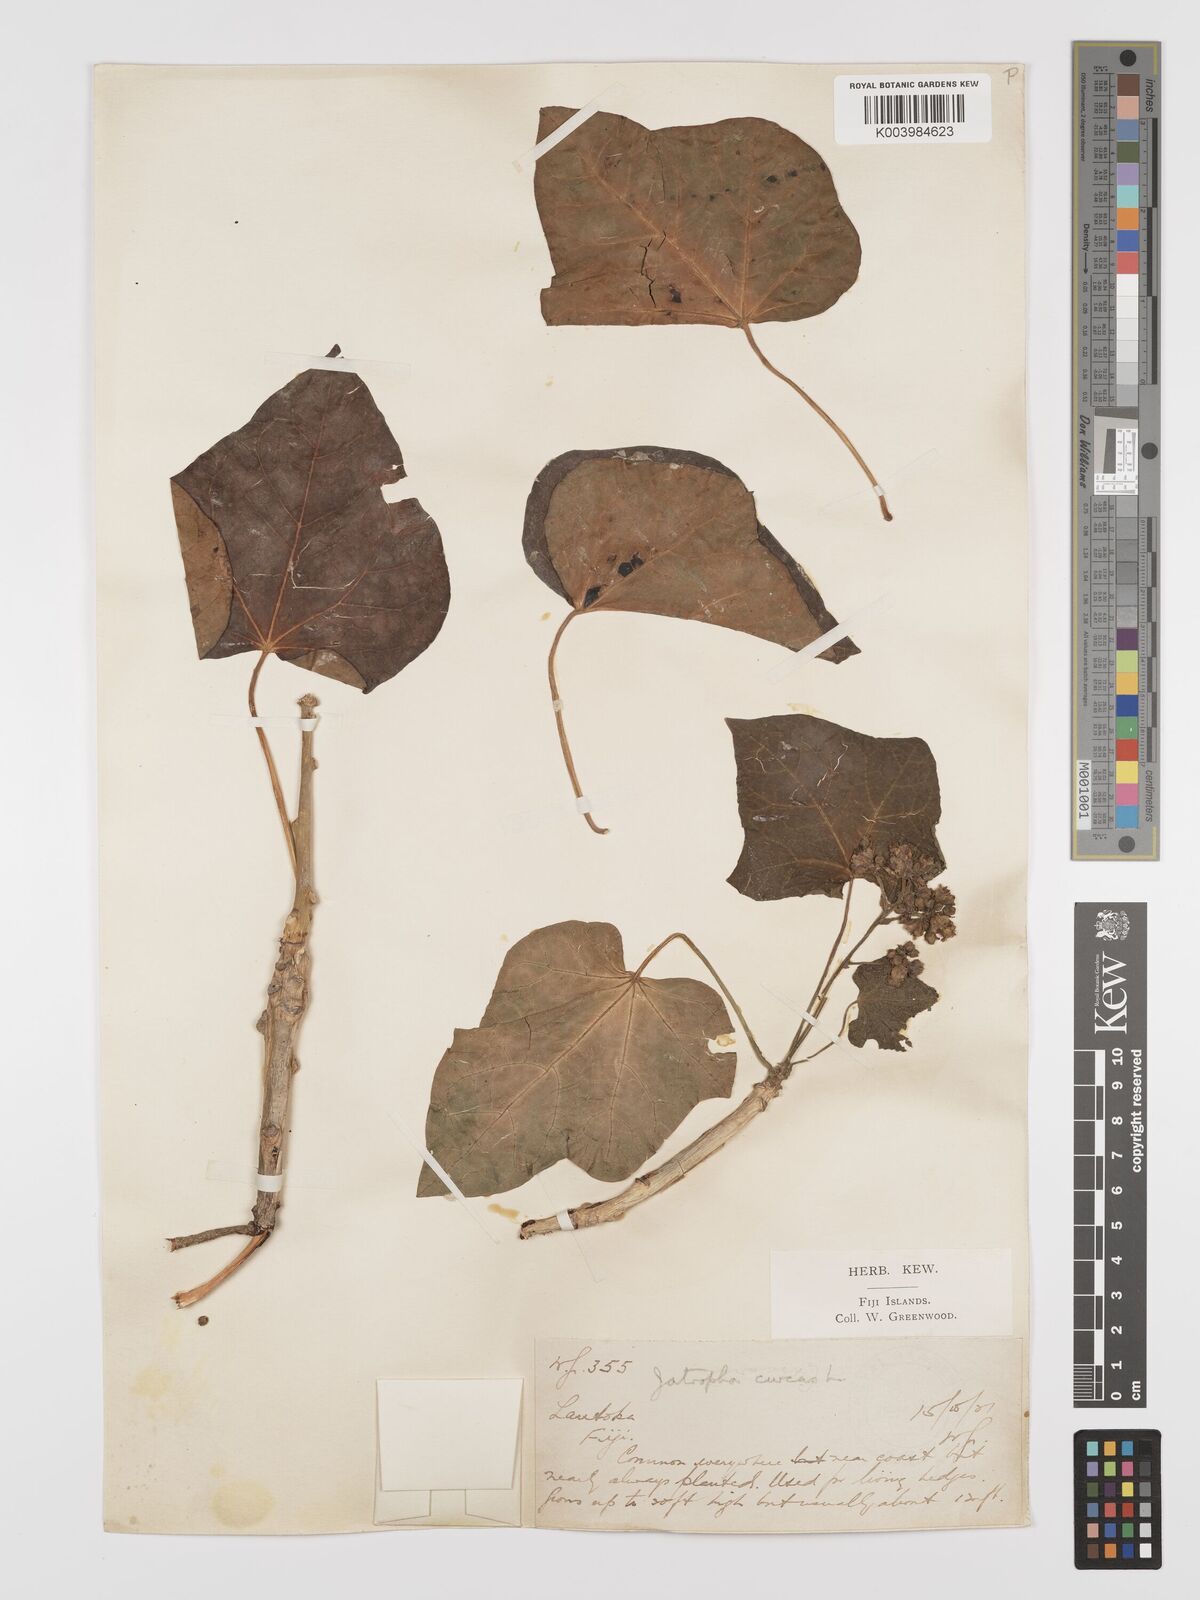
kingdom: Plantae
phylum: Tracheophyta
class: Magnoliopsida
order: Malpighiales
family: Euphorbiaceae
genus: Jatropha
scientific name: Jatropha curcas
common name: Barbados nut
